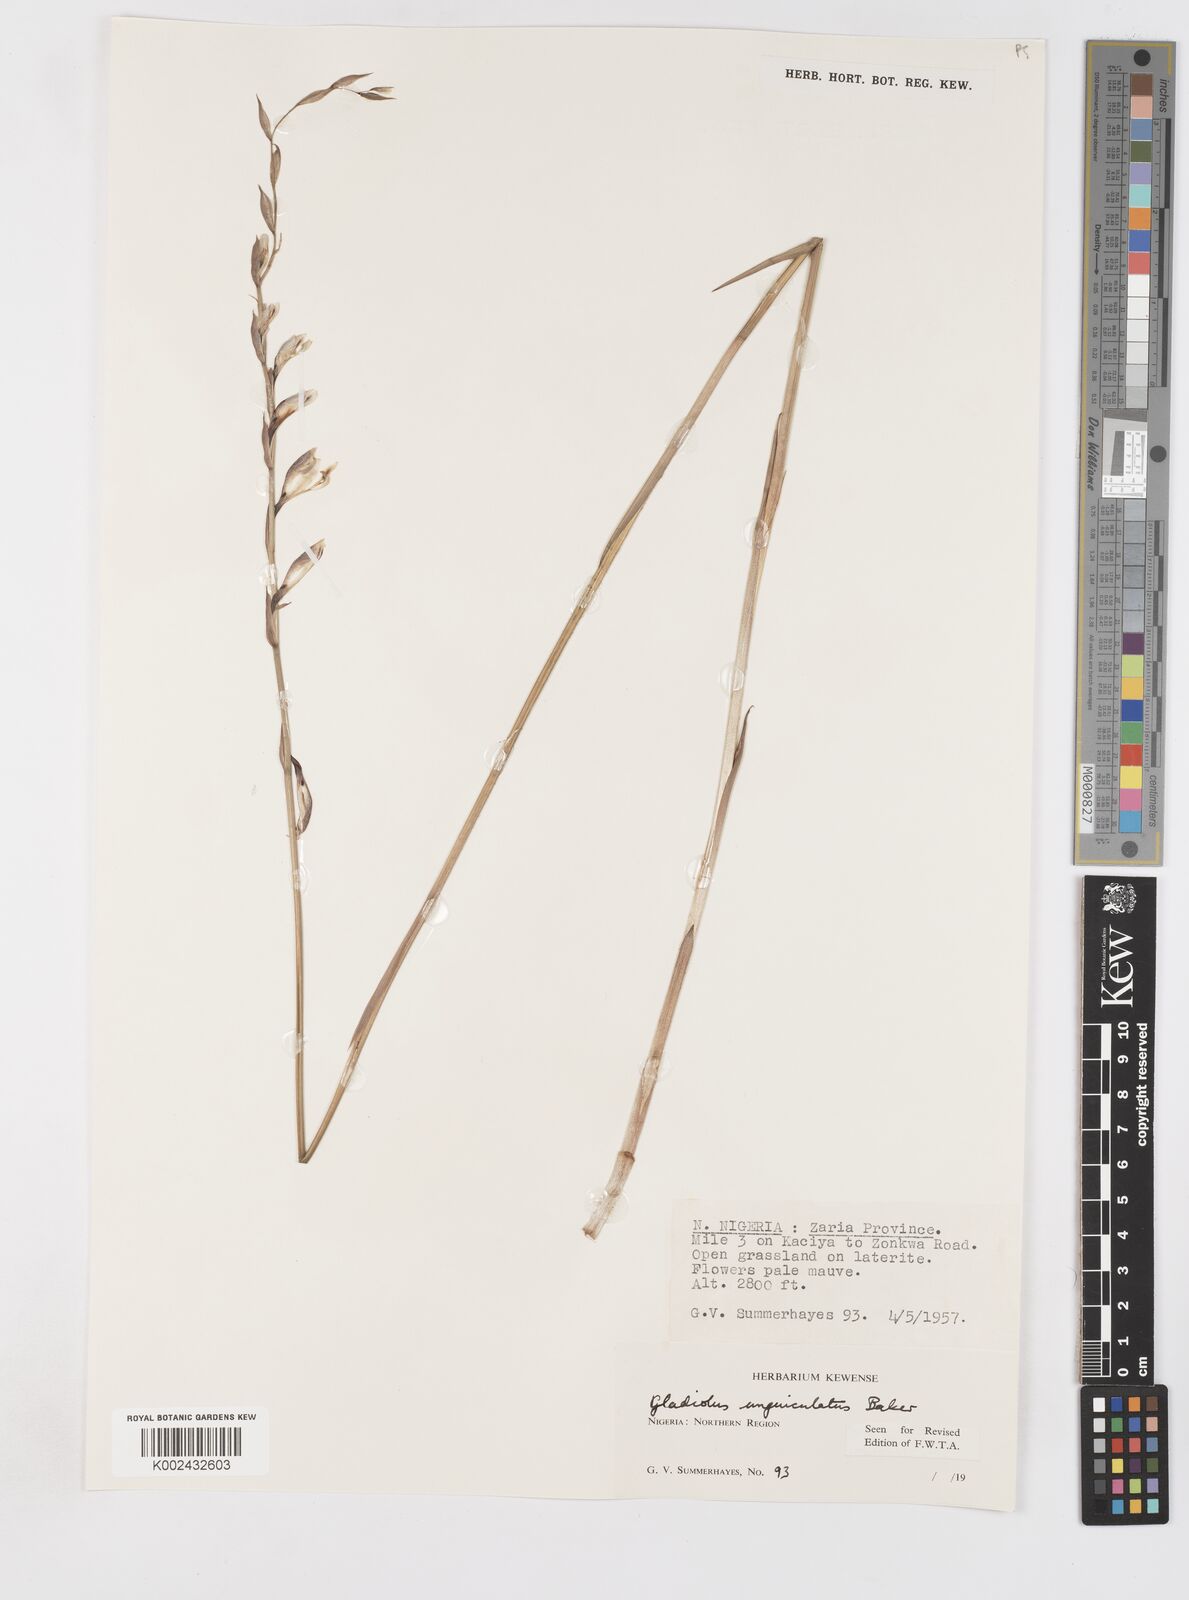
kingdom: Plantae
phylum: Tracheophyta
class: Liliopsida
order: Asparagales
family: Iridaceae
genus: Gladiolus
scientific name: Gladiolus unguiculatus
